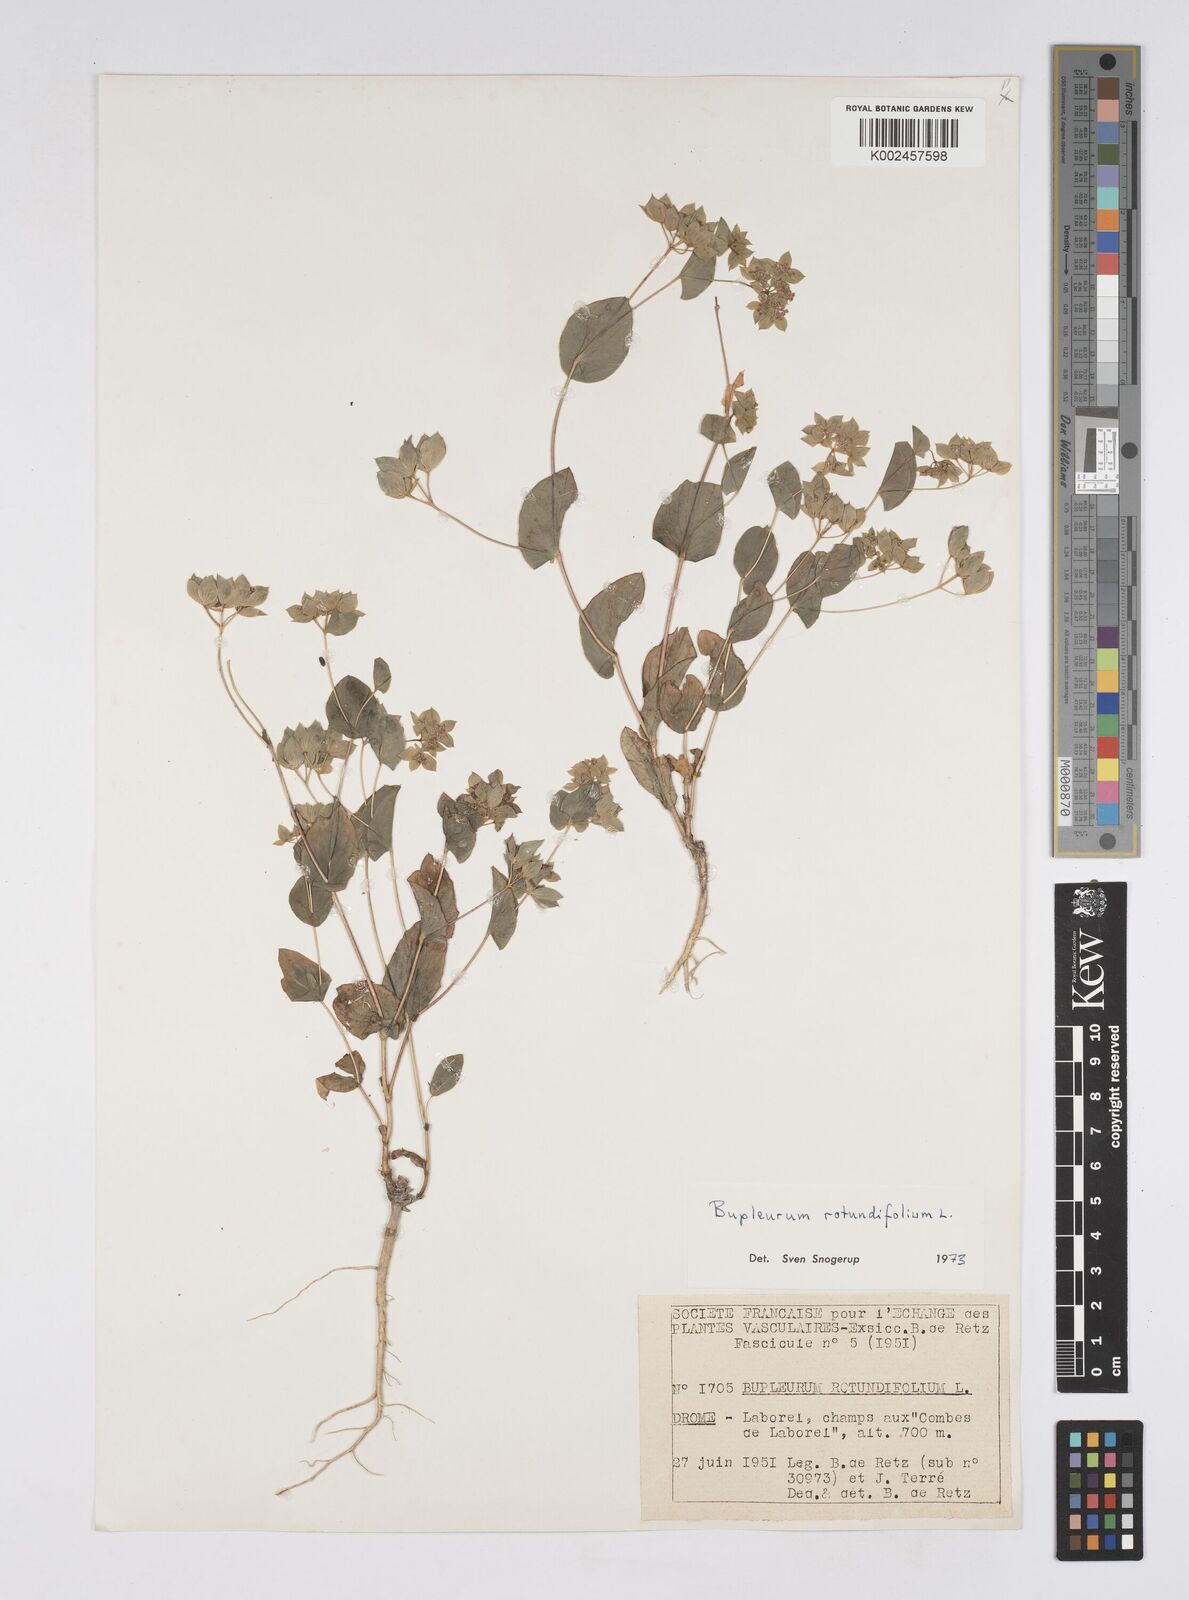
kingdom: Plantae
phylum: Tracheophyta
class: Magnoliopsida
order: Apiales
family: Apiaceae
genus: Bupleurum
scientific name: Bupleurum rotundifolium
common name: Thorow-wax
